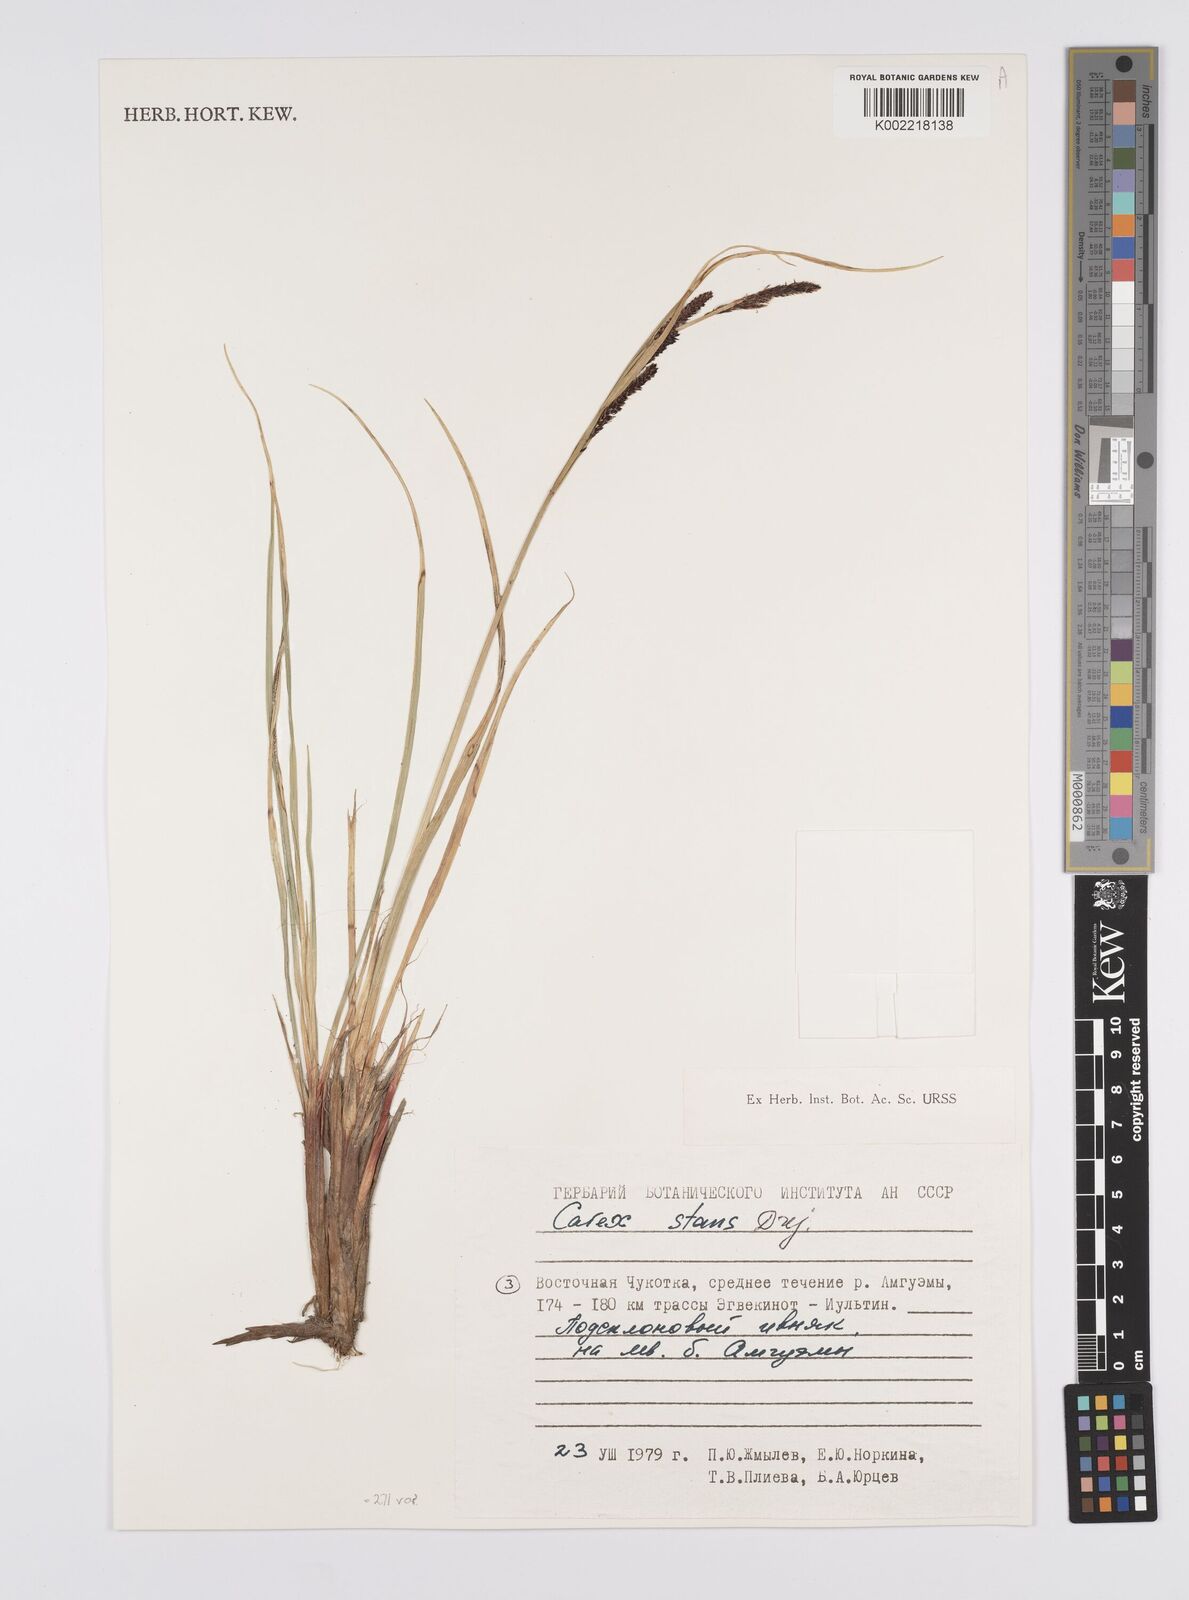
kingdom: Plantae
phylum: Tracheophyta
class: Liliopsida
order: Poales
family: Cyperaceae
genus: Carex
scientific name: Carex aquatilis
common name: Water sedge
